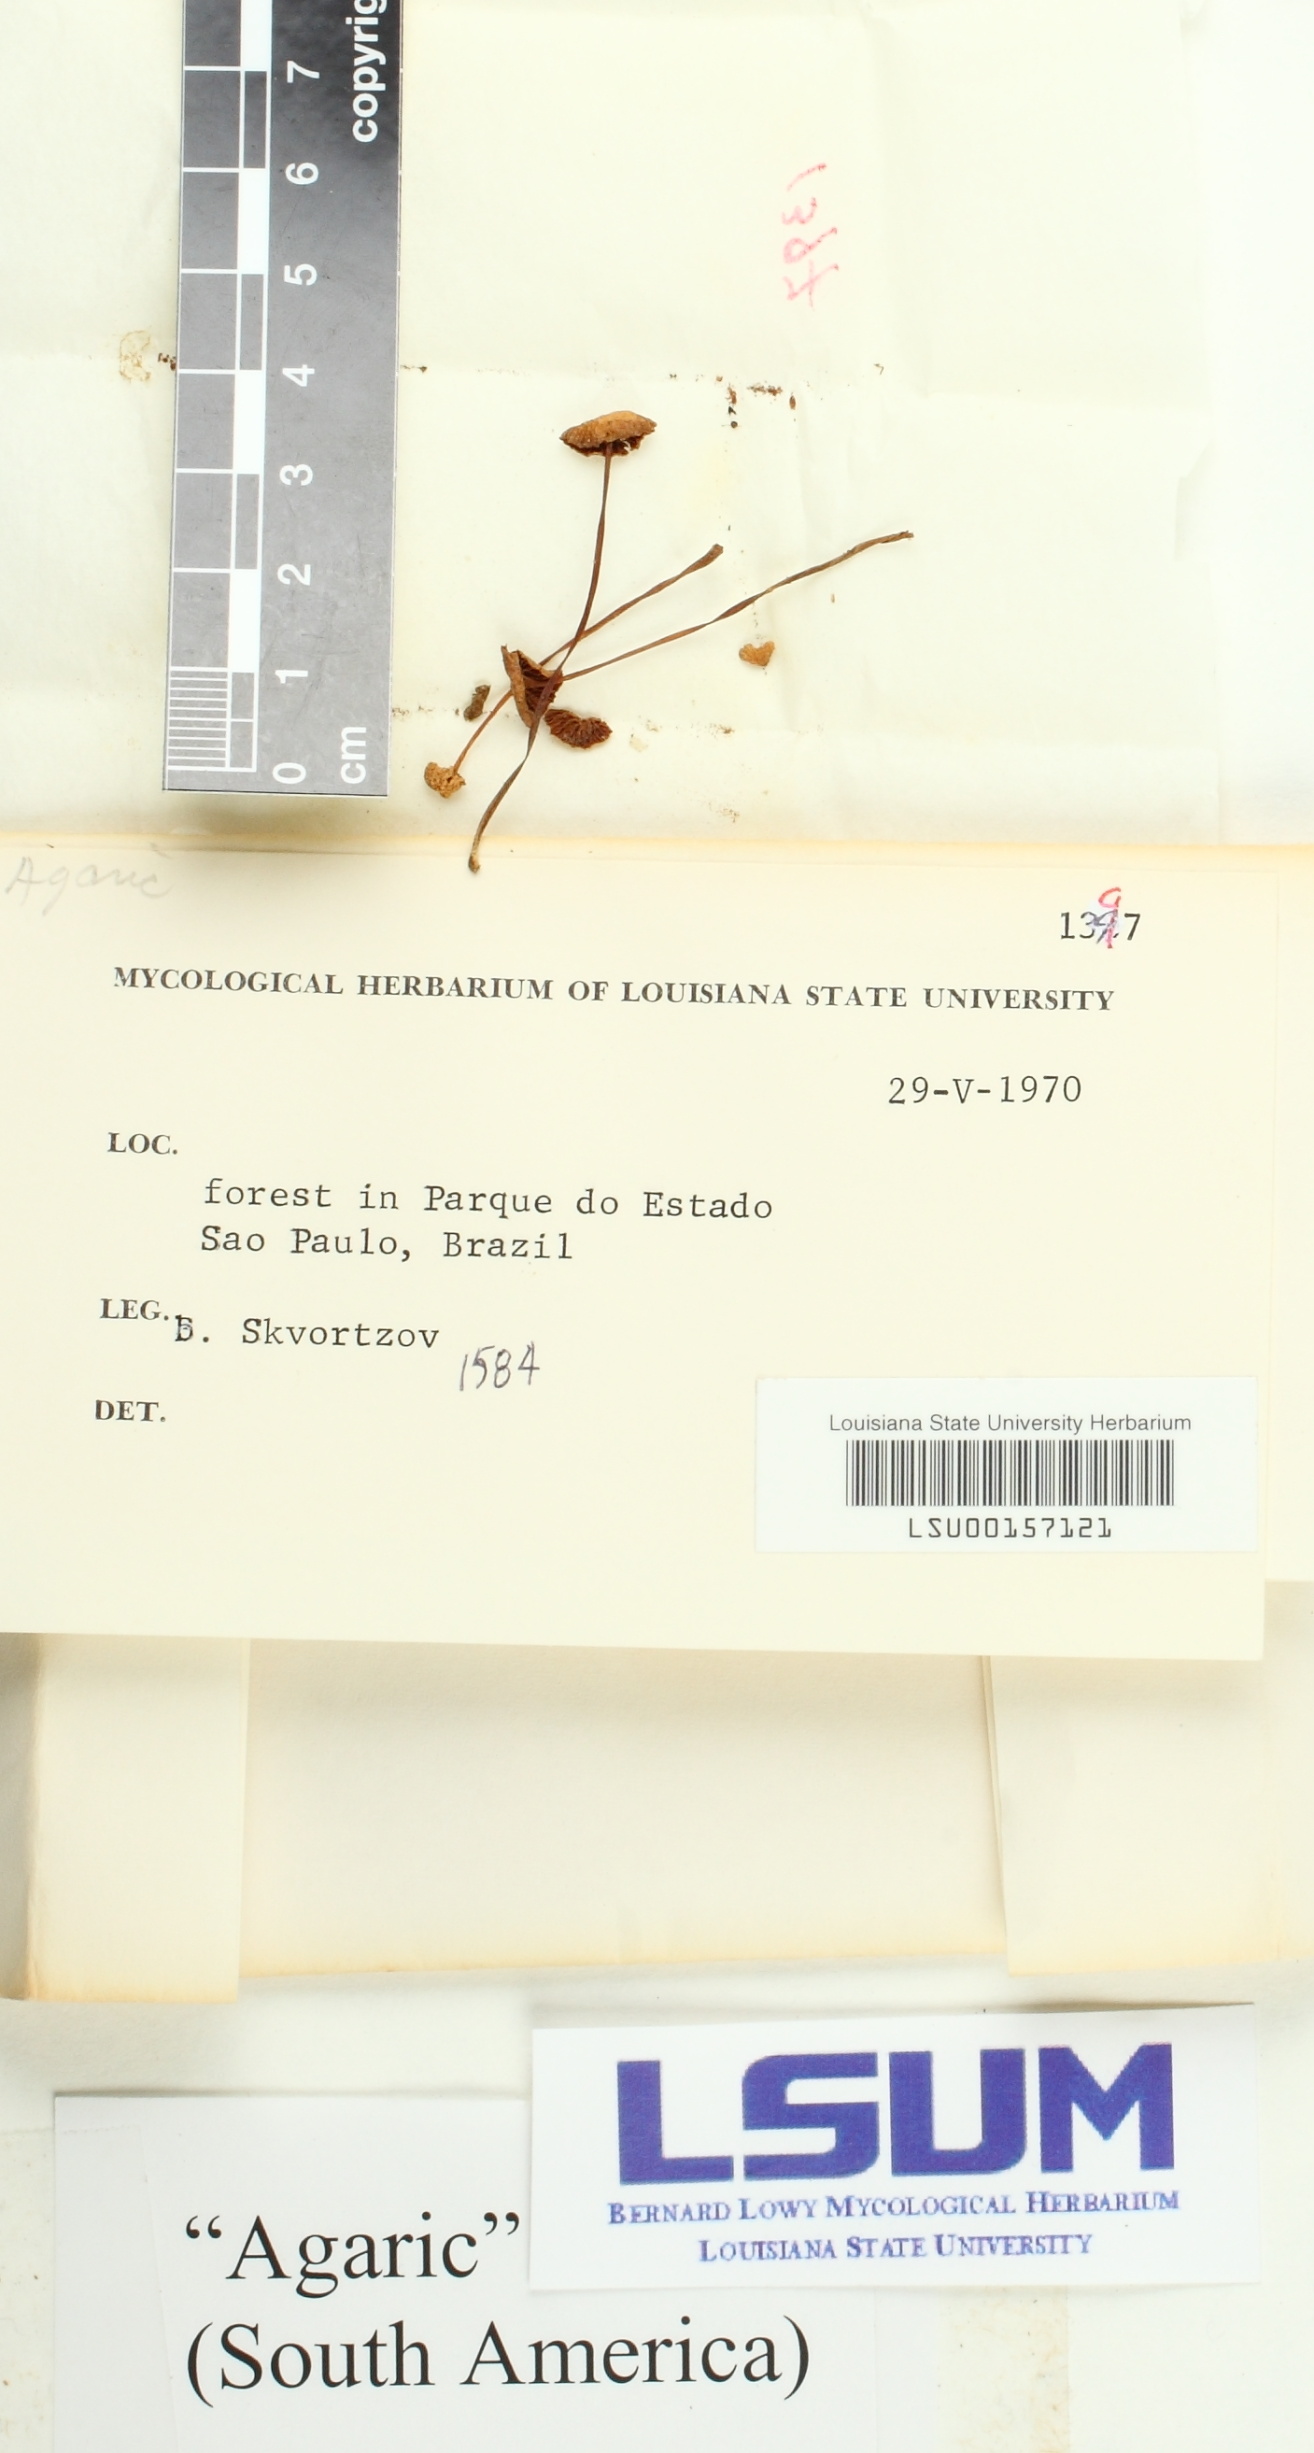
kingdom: Fungi
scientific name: Fungi
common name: Fungi
